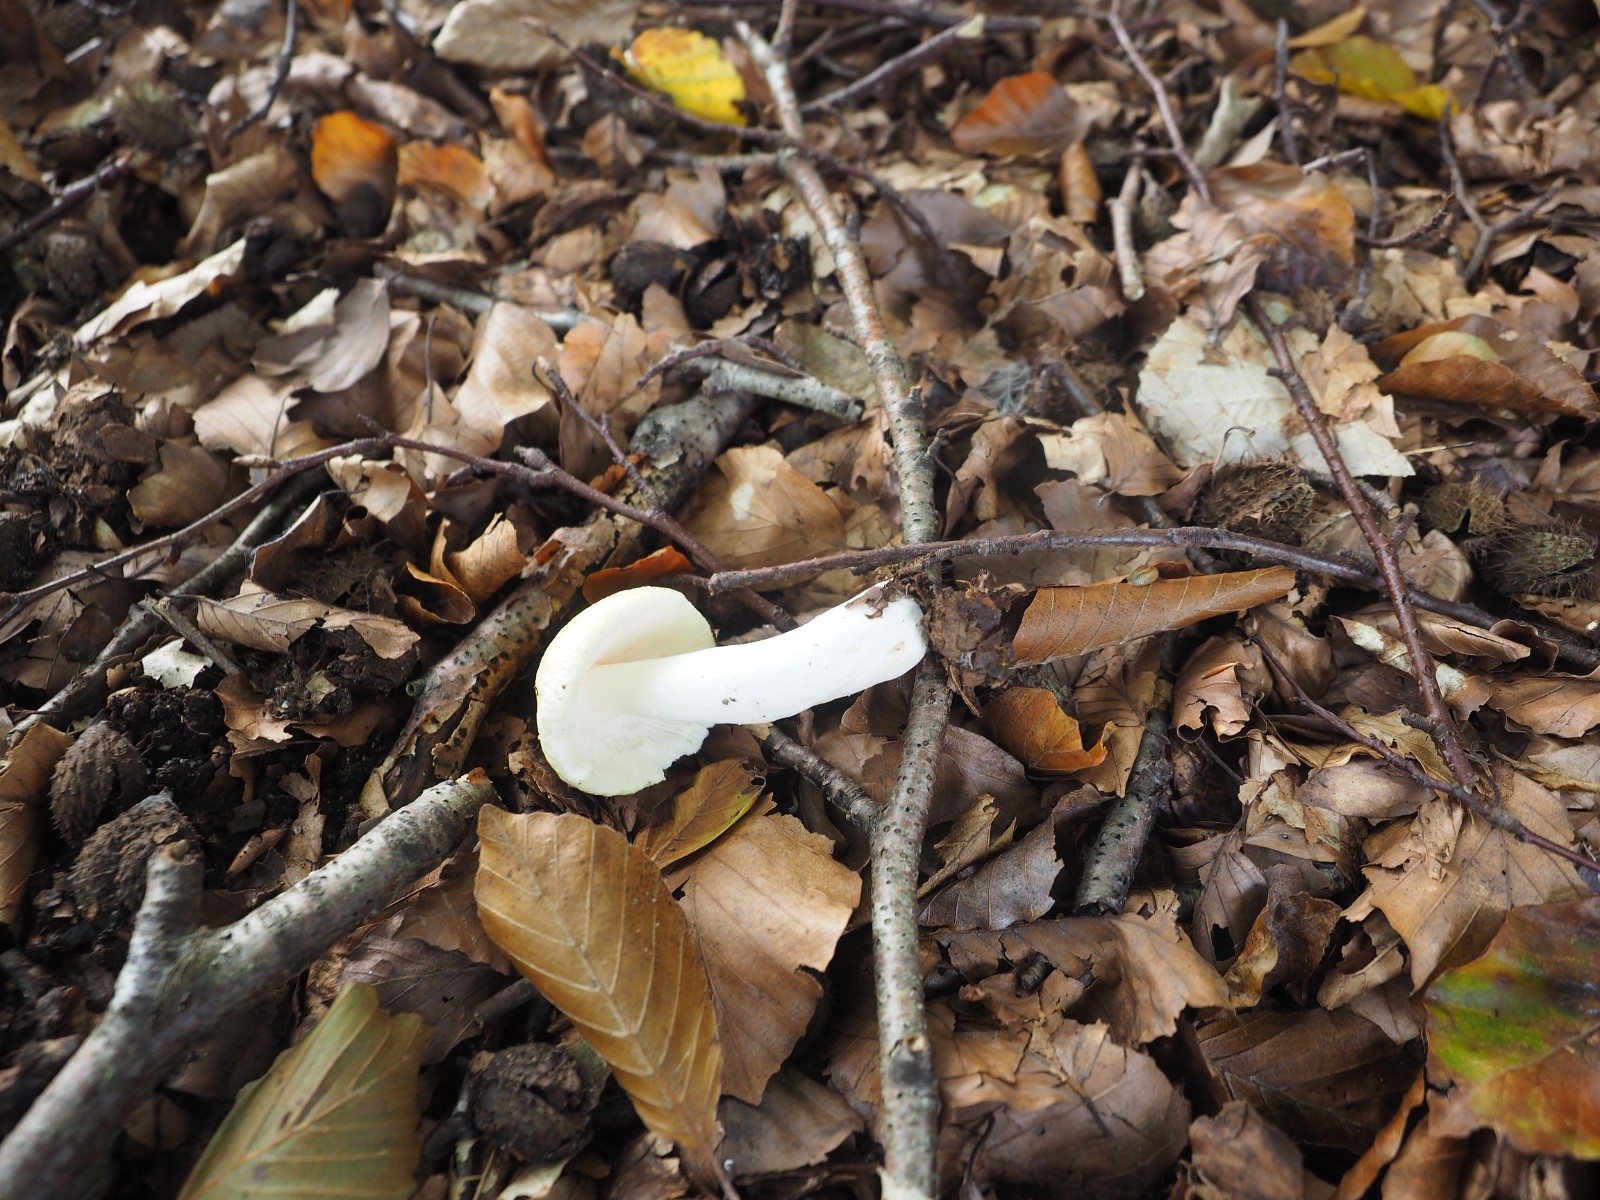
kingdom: Fungi
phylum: Basidiomycota
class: Agaricomycetes
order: Russulales
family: Russulaceae
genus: Russula
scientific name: Russula
